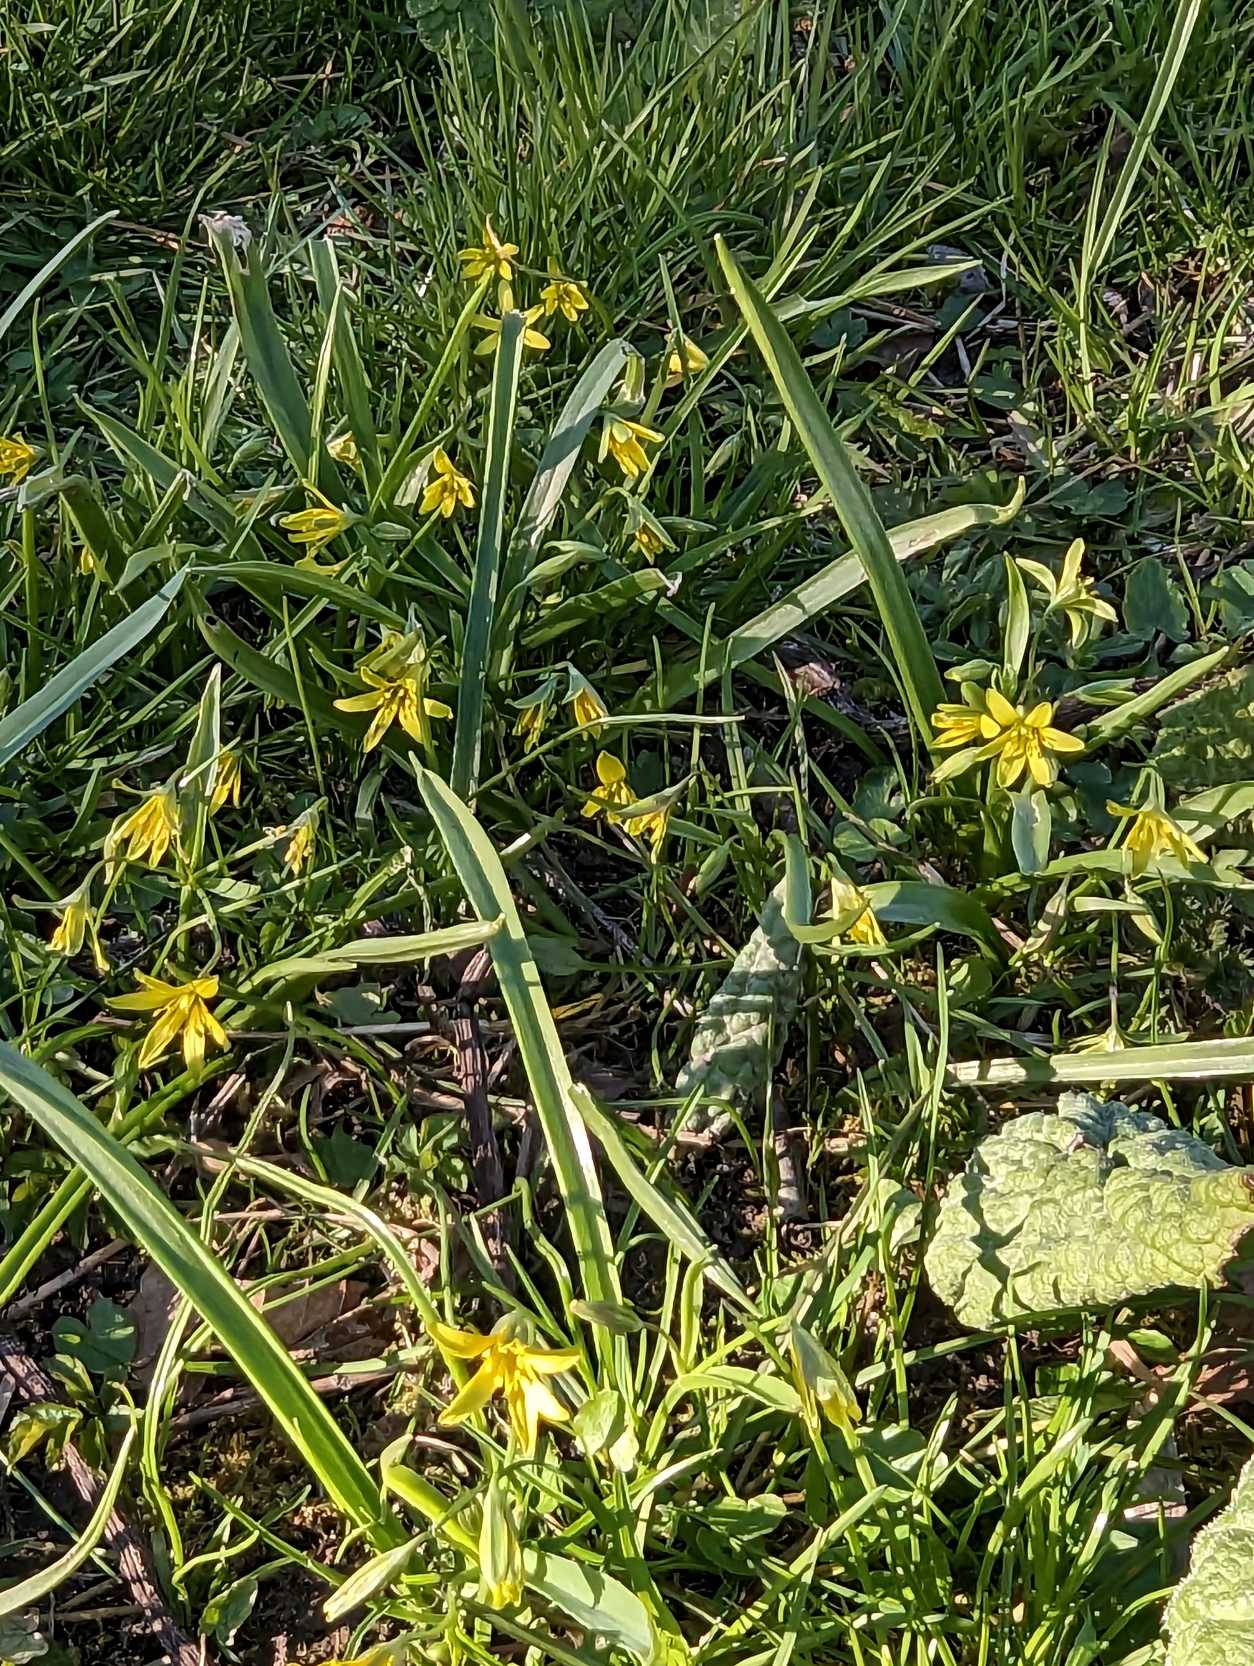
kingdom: Plantae
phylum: Tracheophyta
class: Liliopsida
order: Liliales
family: Liliaceae
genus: Gagea
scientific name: Gagea lutea
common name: Almindelig guldstjerne
